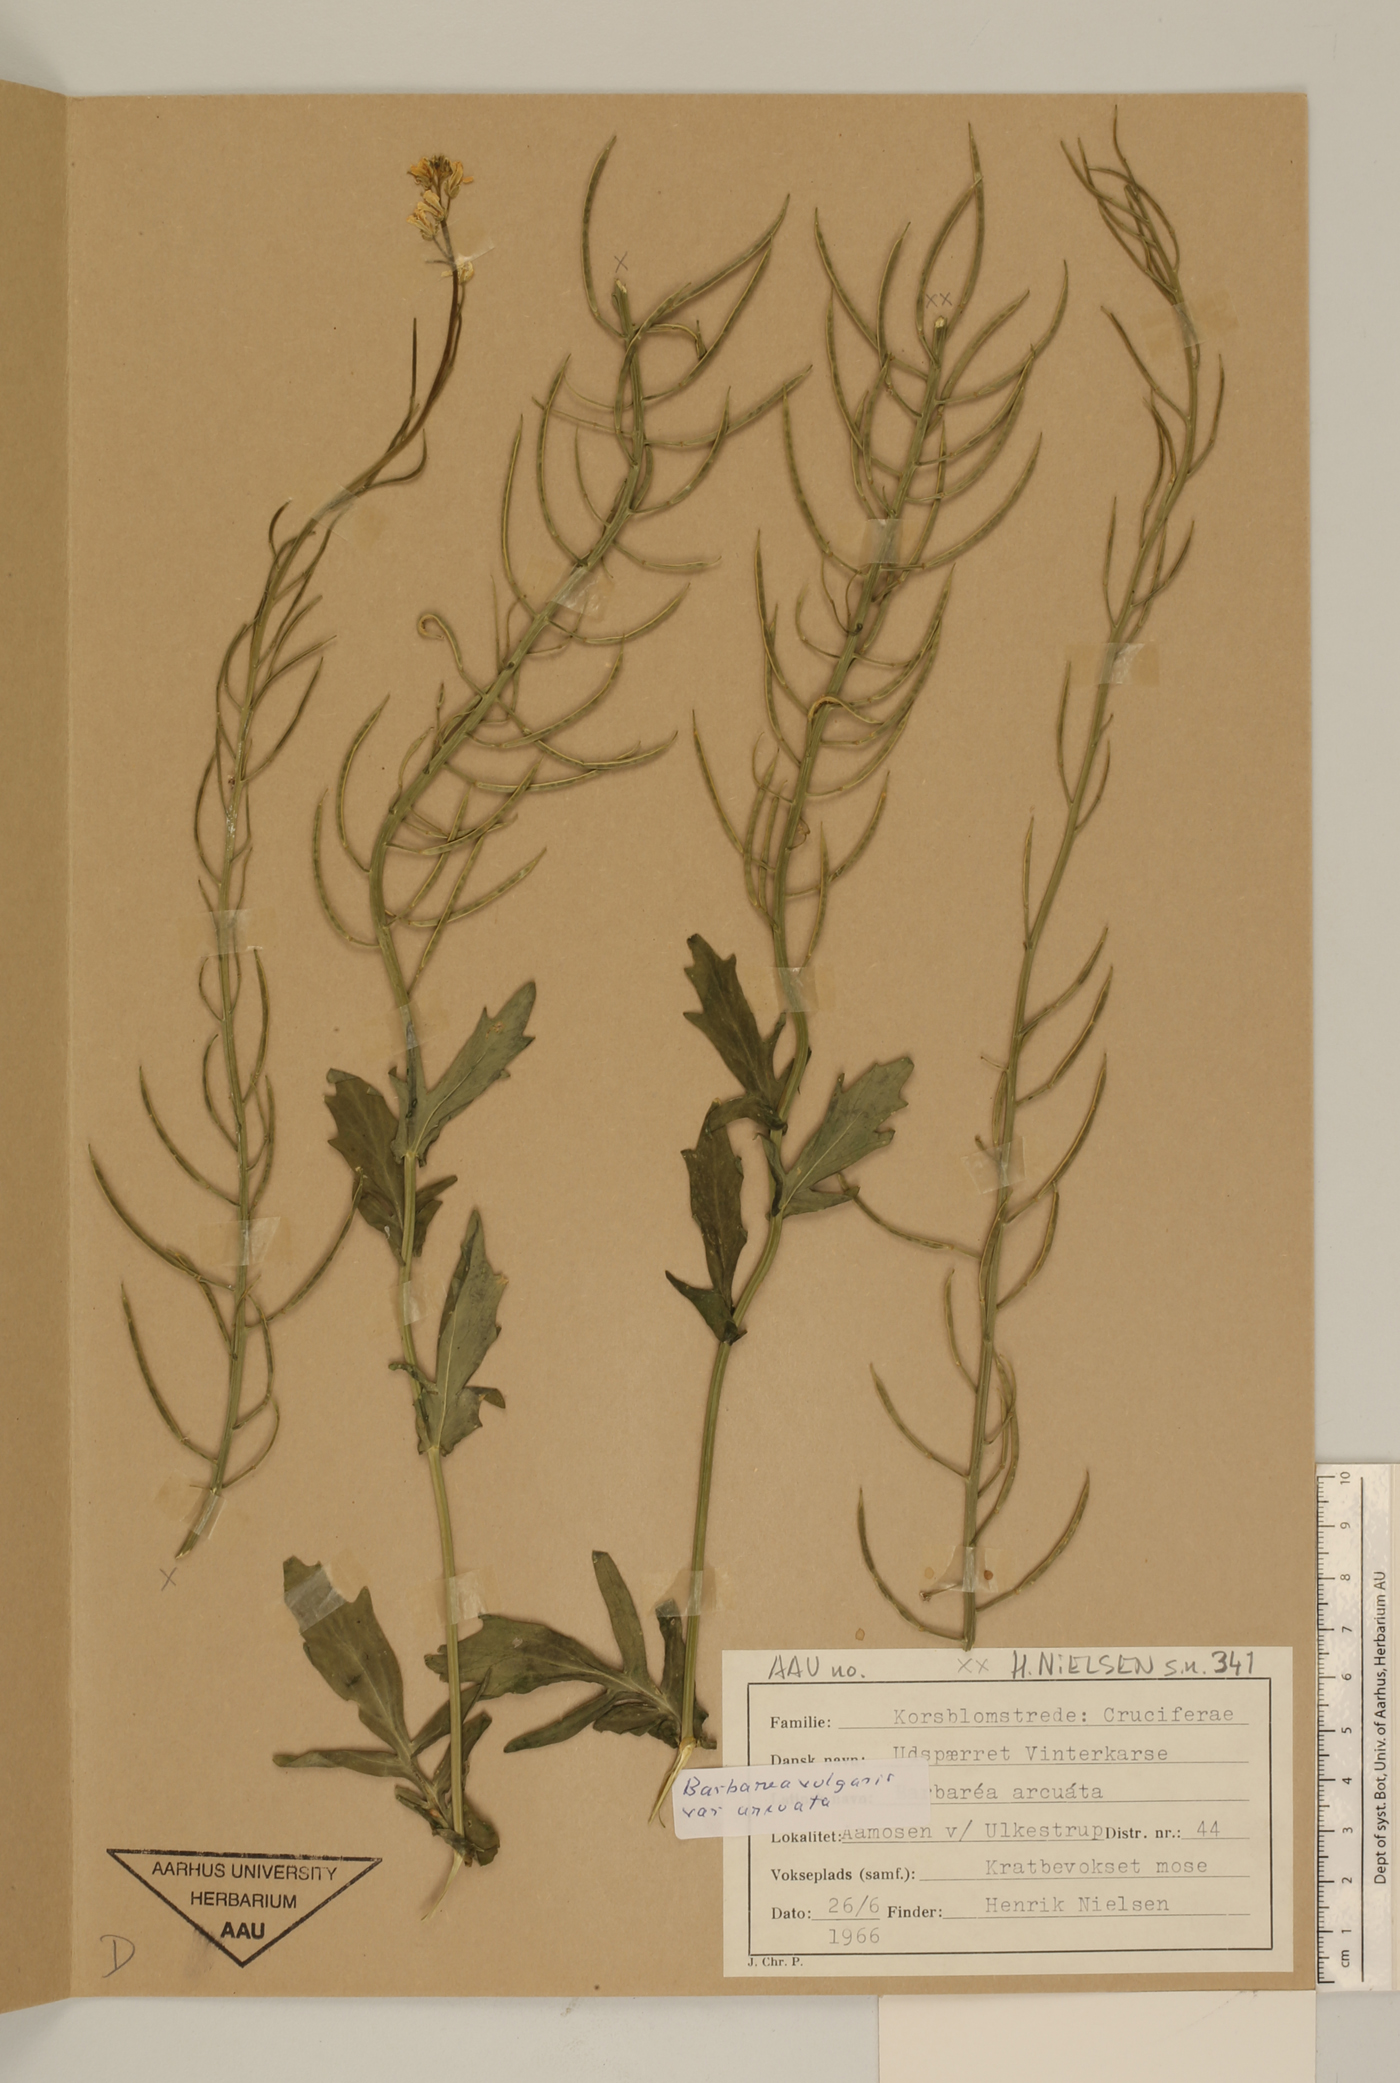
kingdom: Plantae
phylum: Tracheophyta
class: Magnoliopsida
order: Brassicales
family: Brassicaceae
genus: Barbarea
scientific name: Barbarea vulgaris
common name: Cressy-greens
